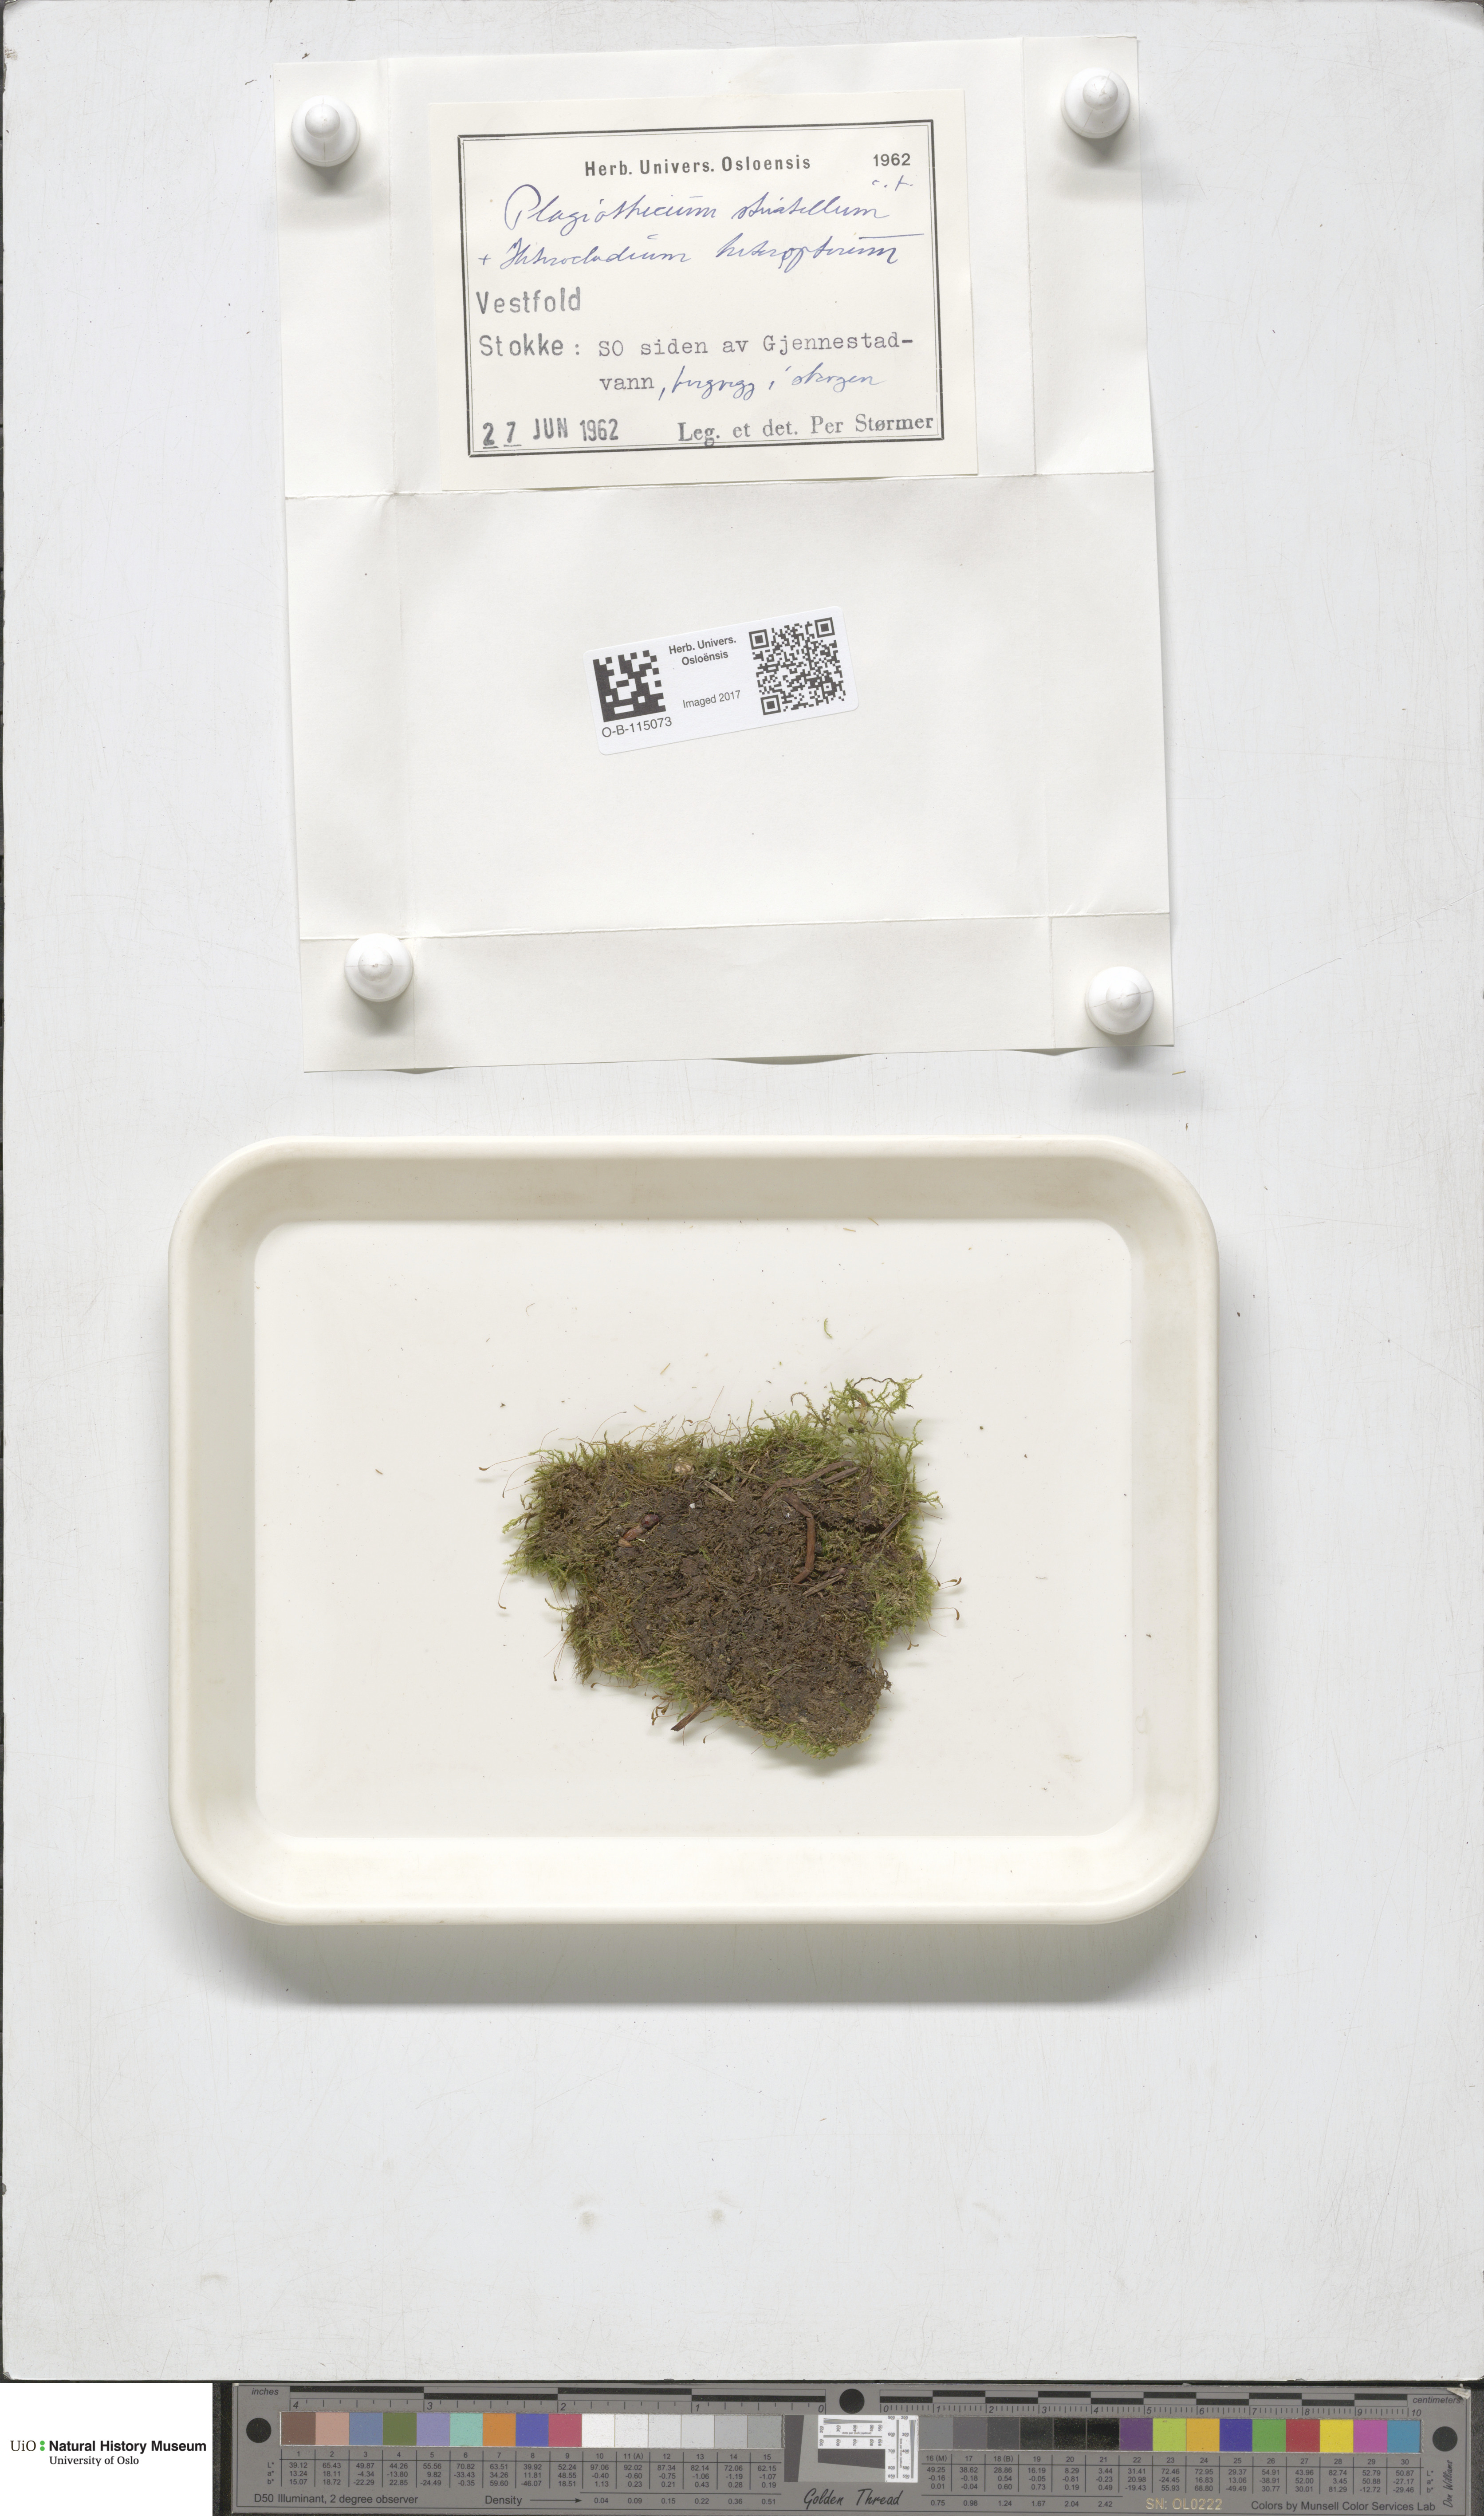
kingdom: Plantae
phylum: Bryophyta
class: Bryopsida
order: Hypnales
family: Plagiotheciaceae
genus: Herzogiella
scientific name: Herzogiella striatella
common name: Muhlenbeck's feather-moss
